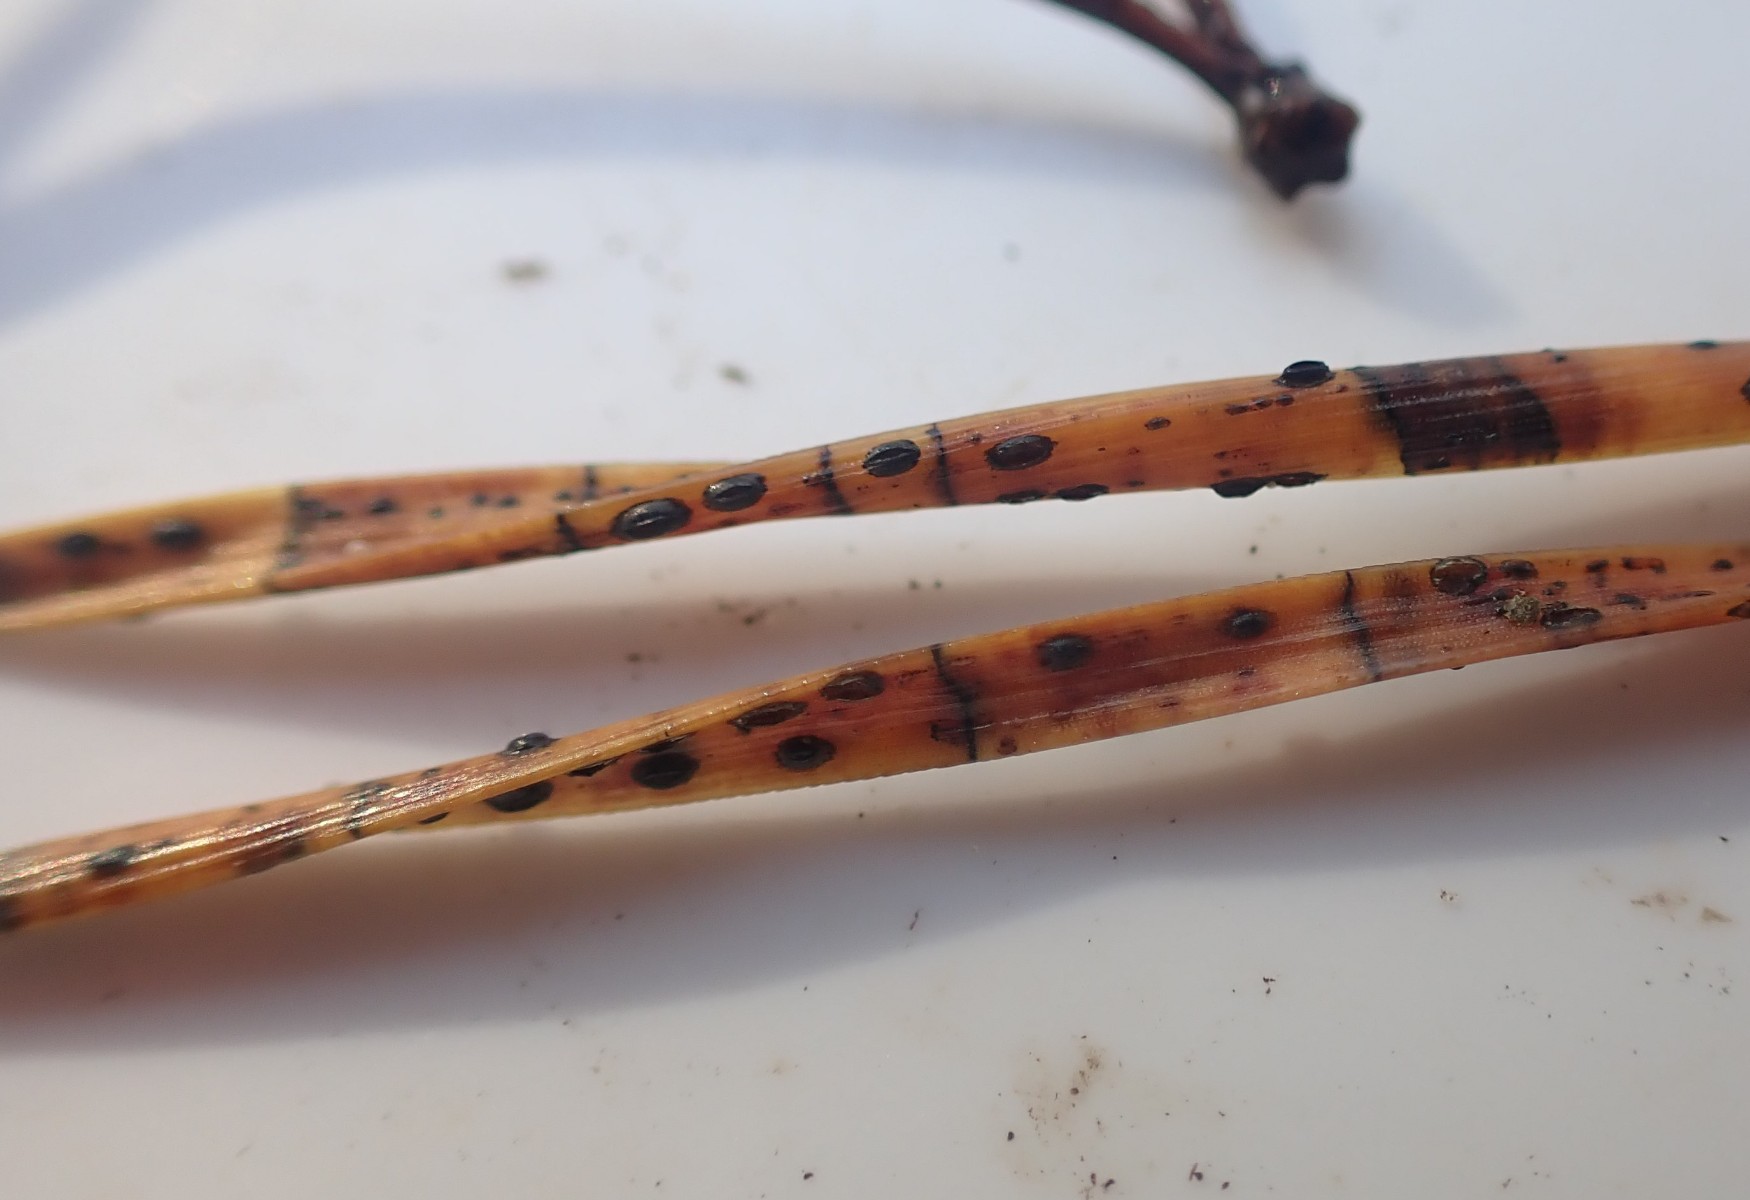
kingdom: Fungi
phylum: Ascomycota
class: Leotiomycetes
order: Rhytismatales
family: Rhytismataceae
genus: Lophodermium
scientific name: Lophodermium pinastri
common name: fyrre-fureplet
